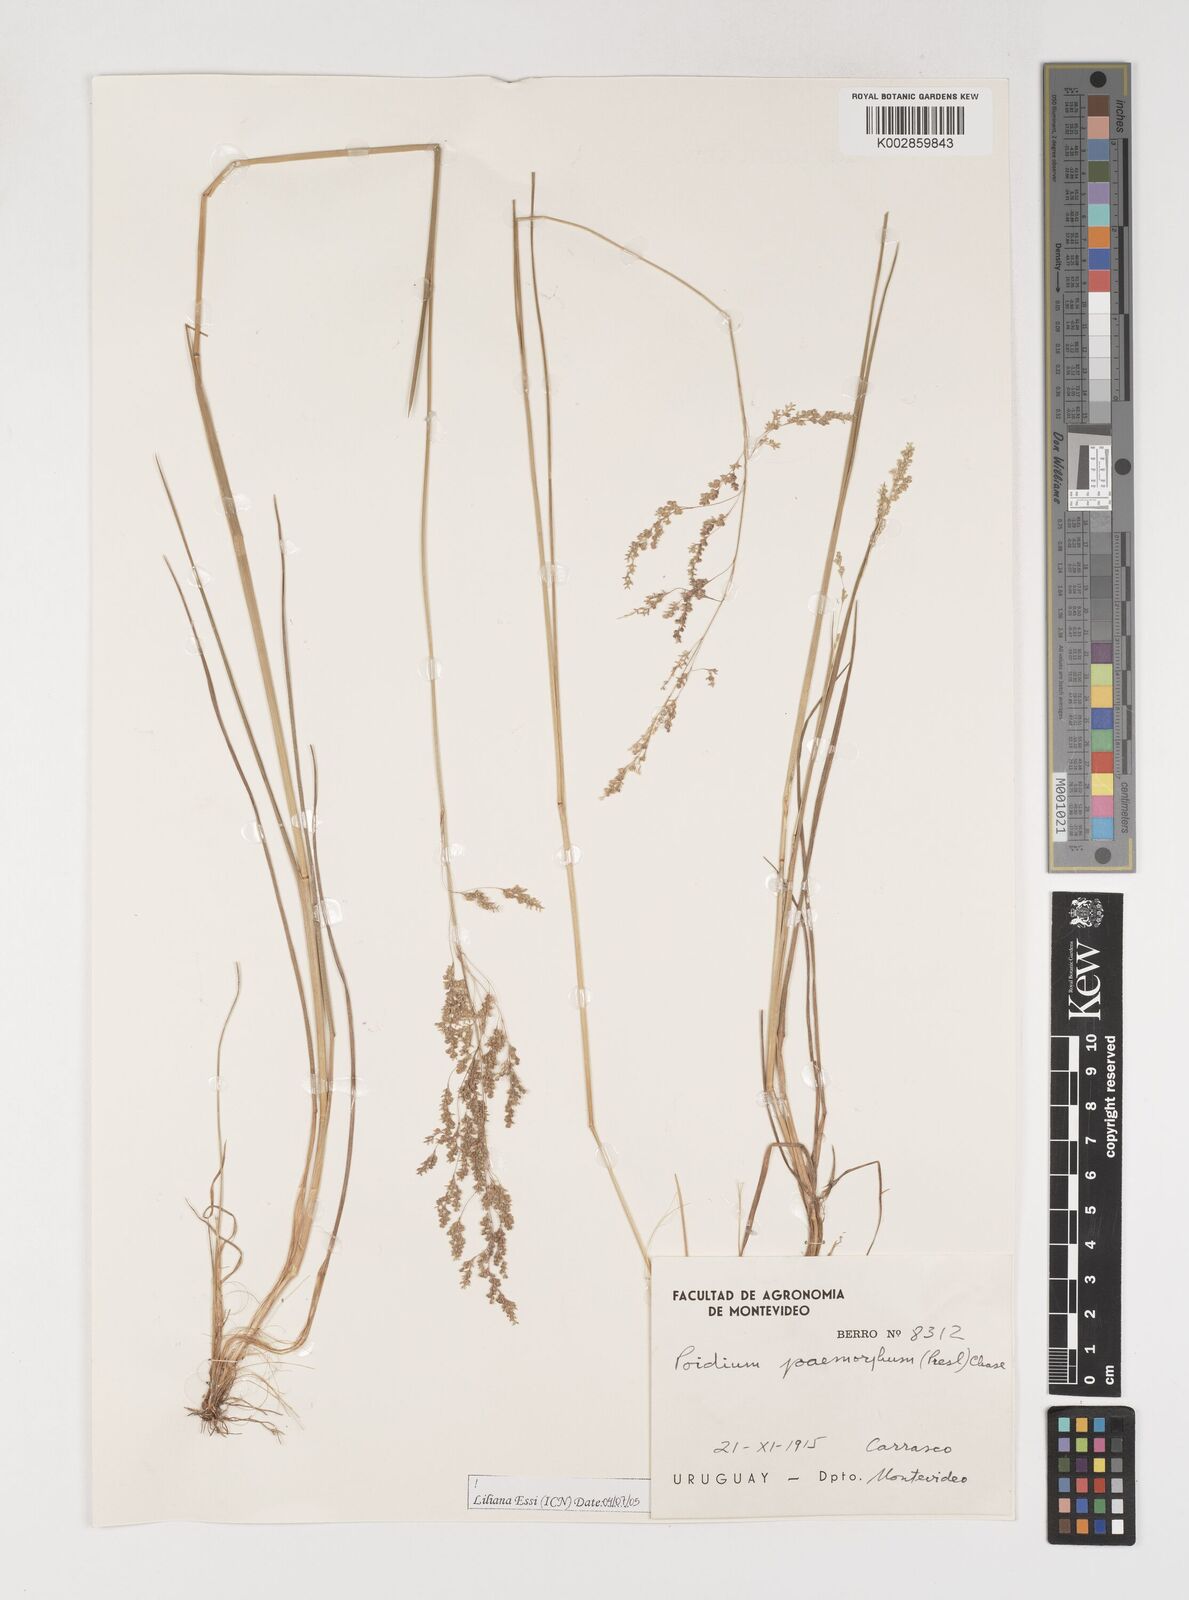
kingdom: Plantae
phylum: Tracheophyta
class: Liliopsida
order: Poales
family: Poaceae
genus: Microbriza
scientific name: Microbriza poimorpha
